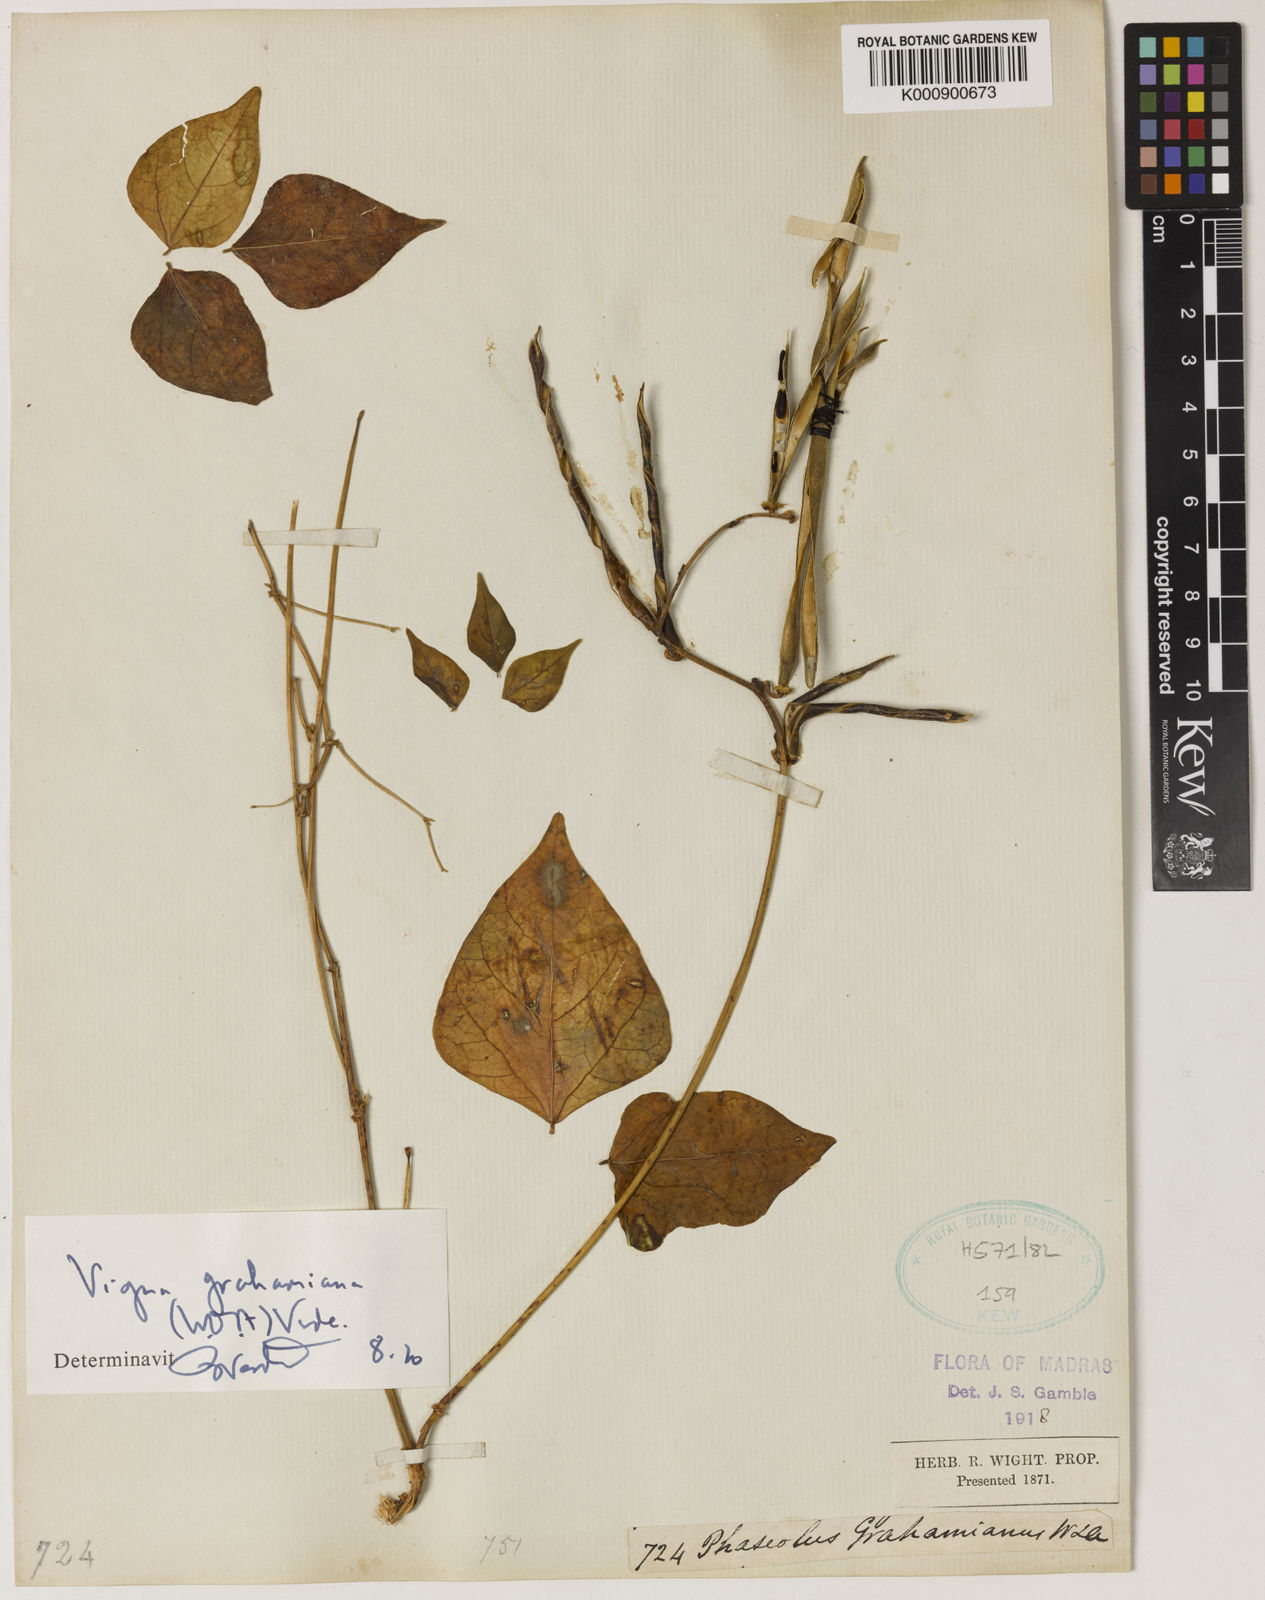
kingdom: Plantae
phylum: Tracheophyta
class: Magnoliopsida
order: Fabales
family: Fabaceae
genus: Wajira
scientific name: Wajira grahamiana
